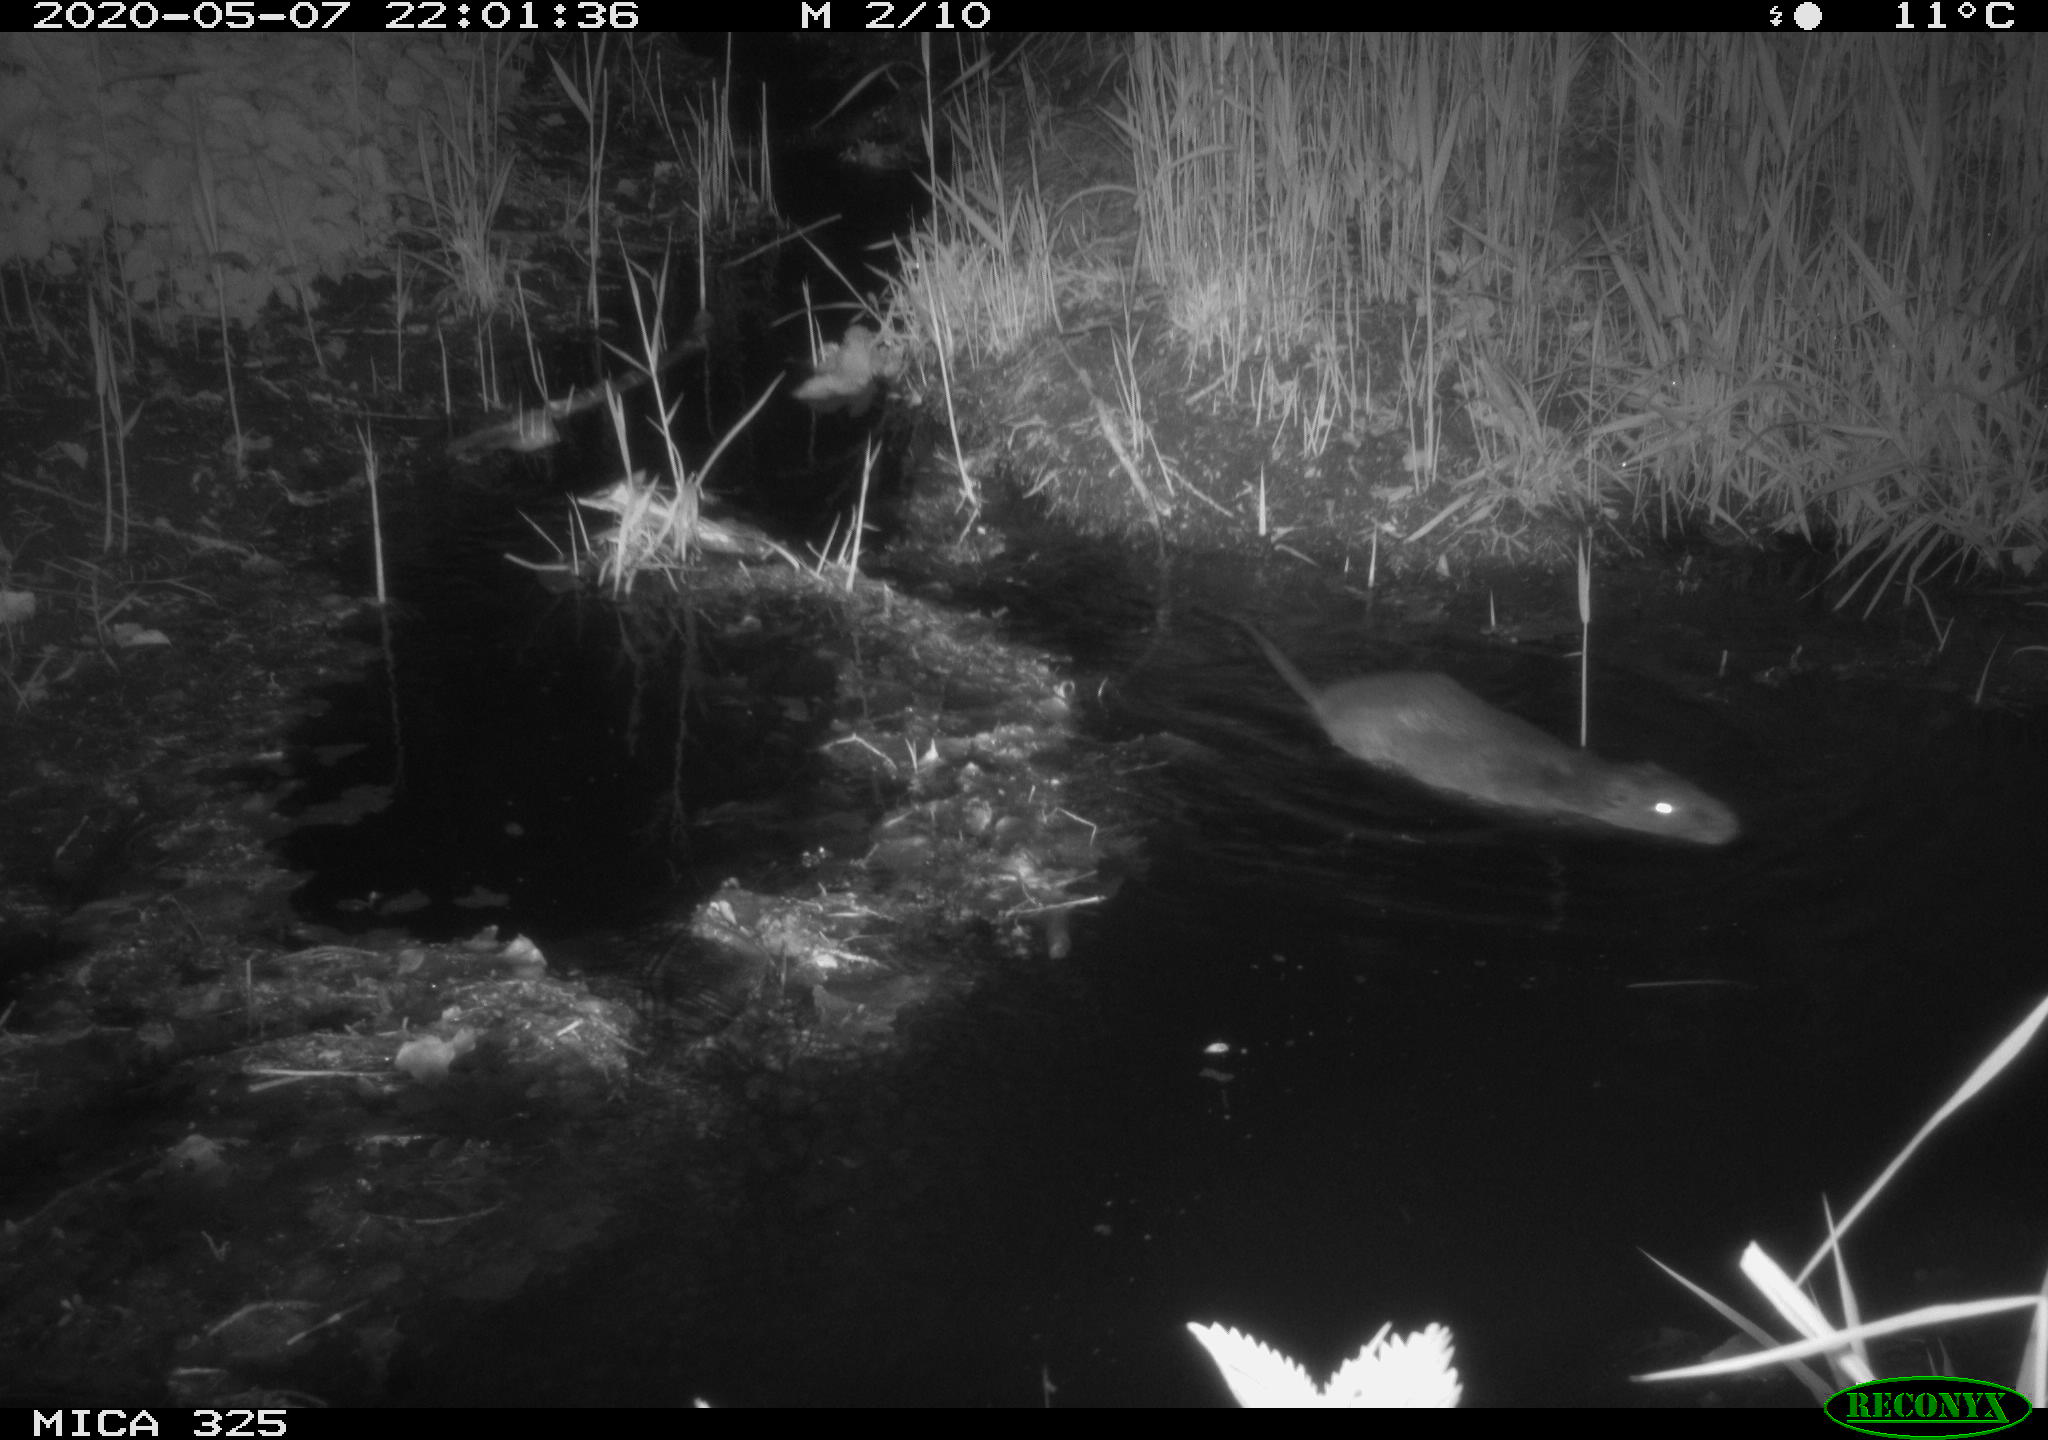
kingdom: Animalia
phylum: Chordata
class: Mammalia
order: Rodentia
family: Myocastoridae
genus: Myocastor
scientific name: Myocastor coypus
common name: Coypu
